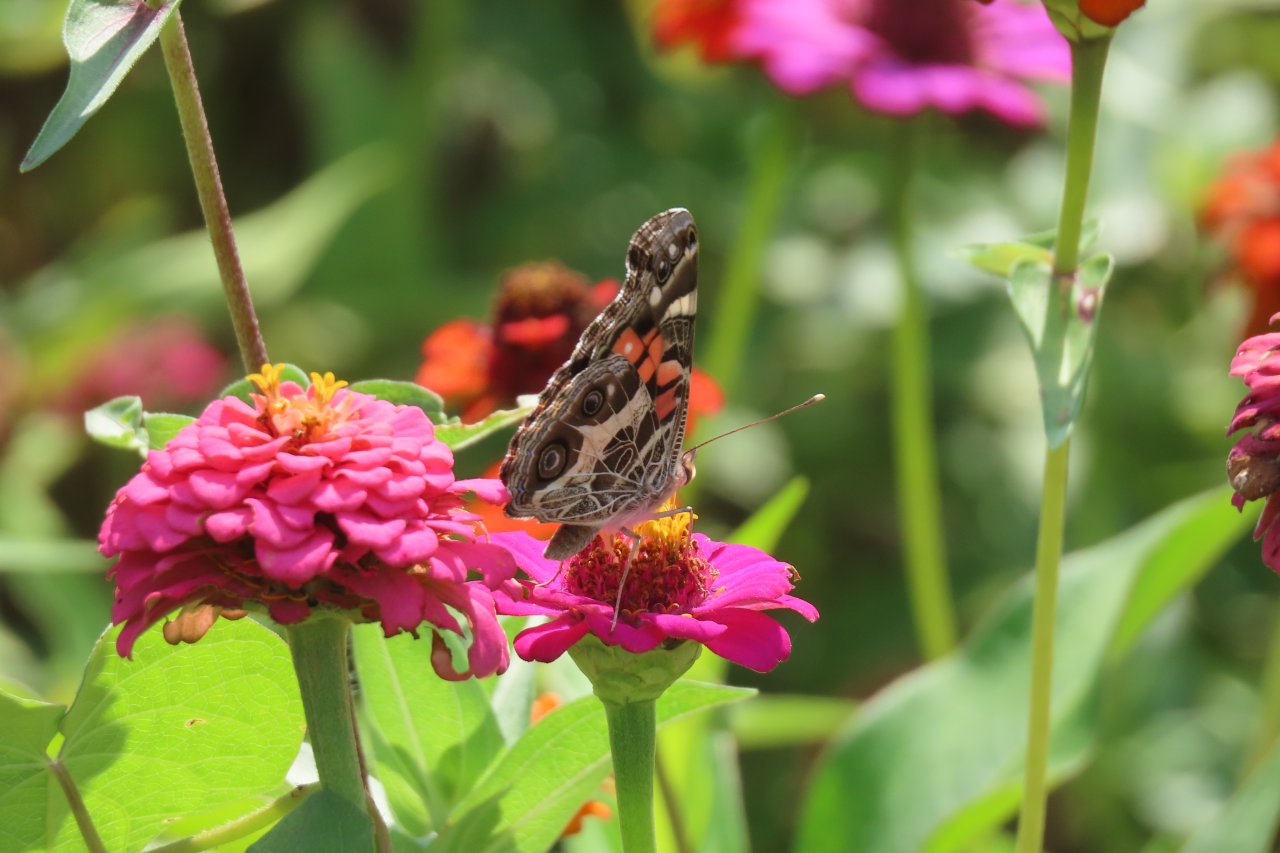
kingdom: Animalia
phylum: Arthropoda
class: Insecta
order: Lepidoptera
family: Nymphalidae
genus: Vanessa
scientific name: Vanessa virginiensis
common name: American Lady
